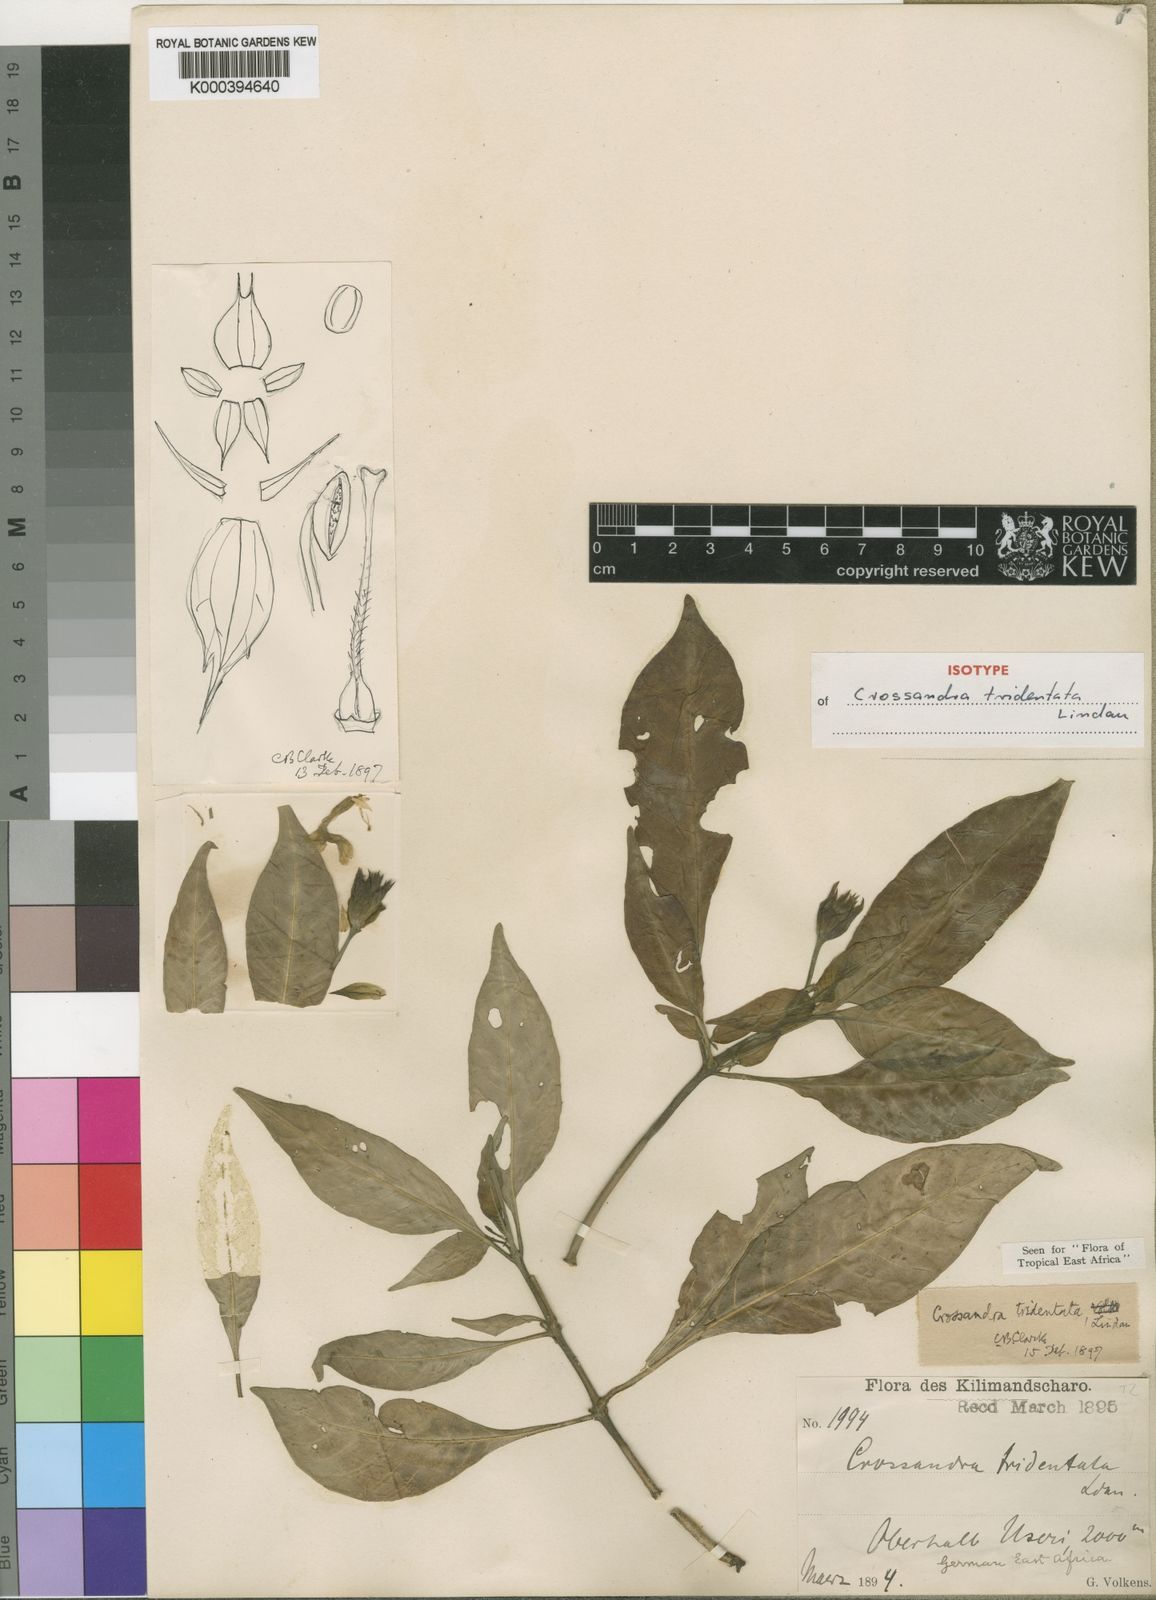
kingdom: Plantae
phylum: Tracheophyta
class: Magnoliopsida
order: Lamiales
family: Acanthaceae
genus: Crossandra
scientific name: Crossandra tridentata
